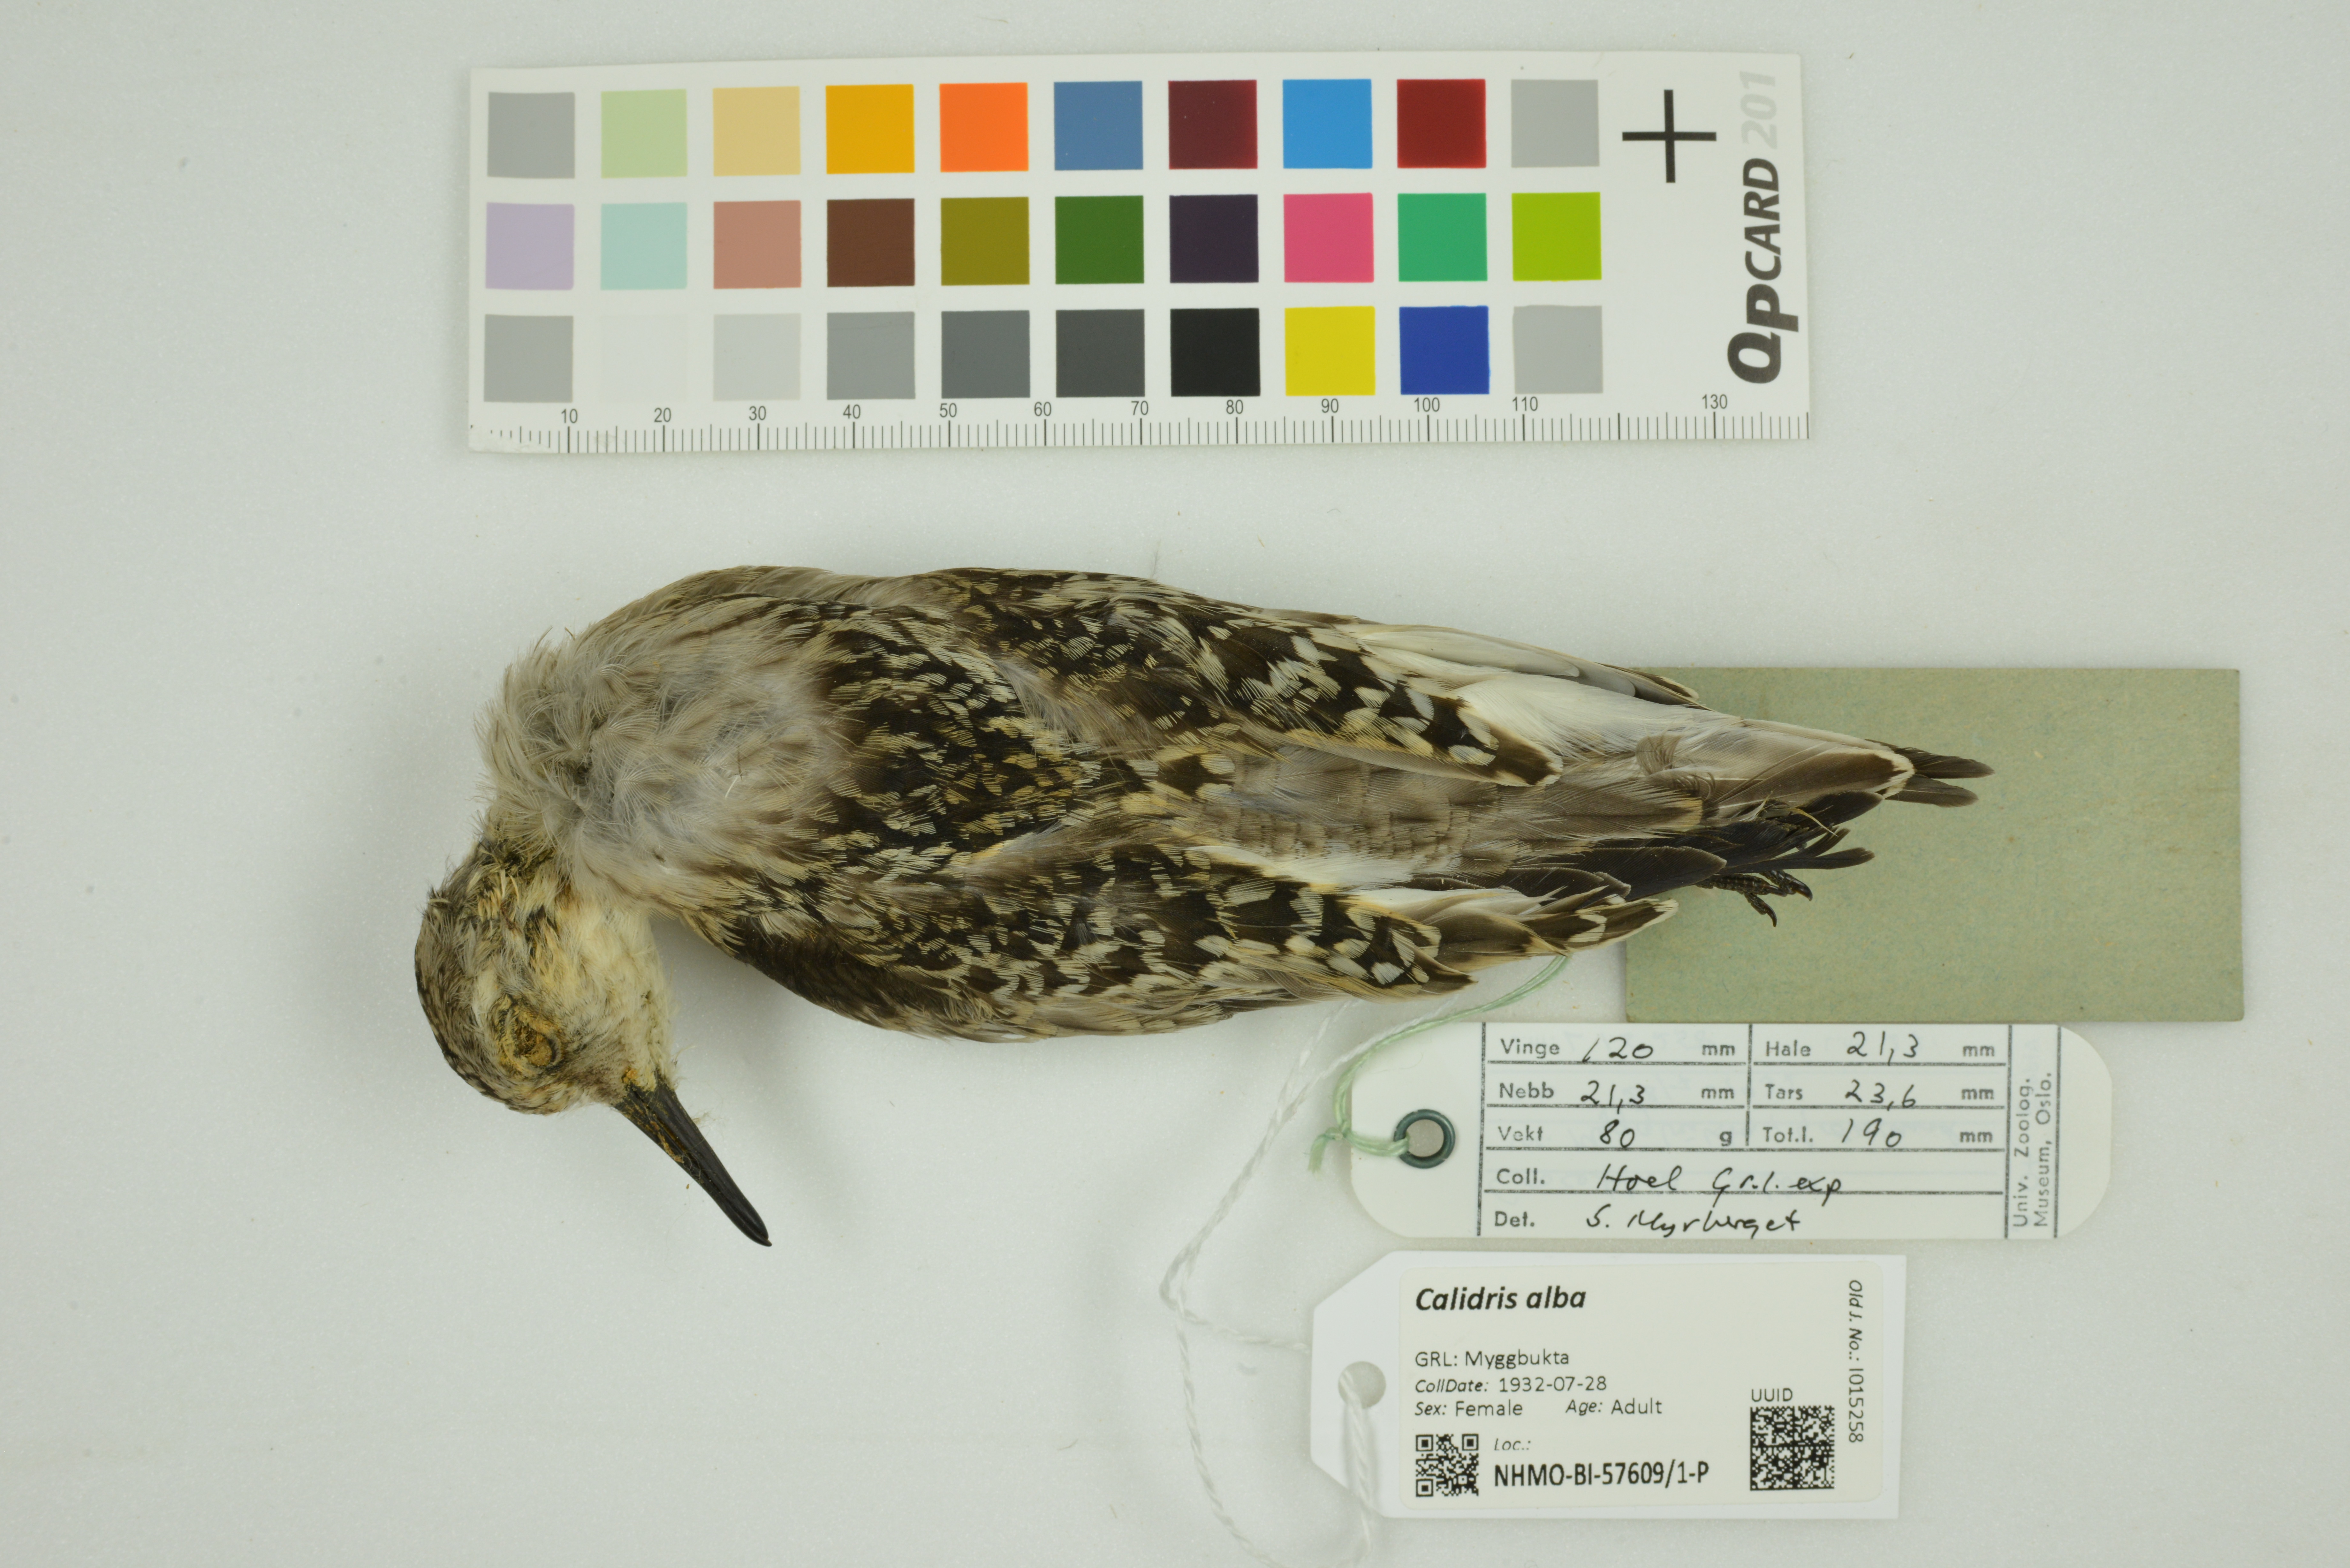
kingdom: Animalia
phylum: Chordata
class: Aves
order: Charadriiformes
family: Scolopacidae
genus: Calidris
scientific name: Calidris alba
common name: Sanderling
